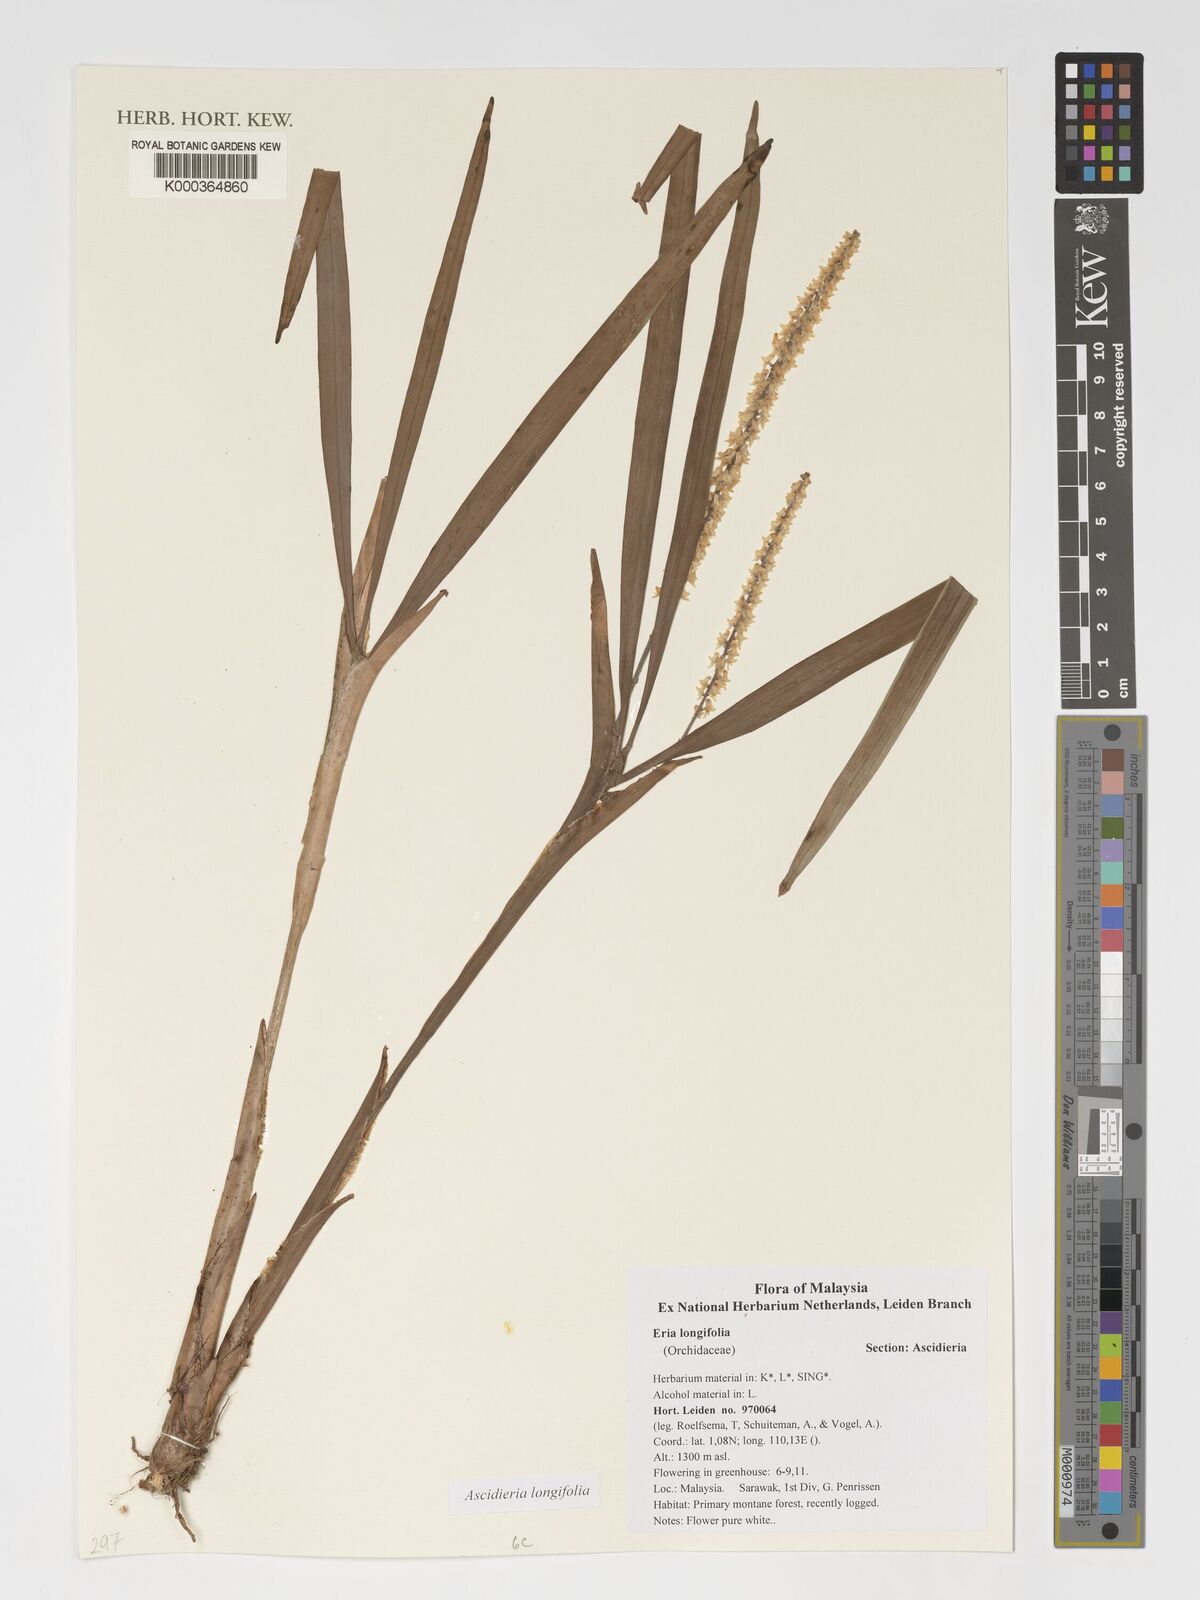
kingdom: Plantae
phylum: Tracheophyta
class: Liliopsida
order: Asparagales
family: Orchidaceae
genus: Ascidieria
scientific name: Ascidieria longifolia
